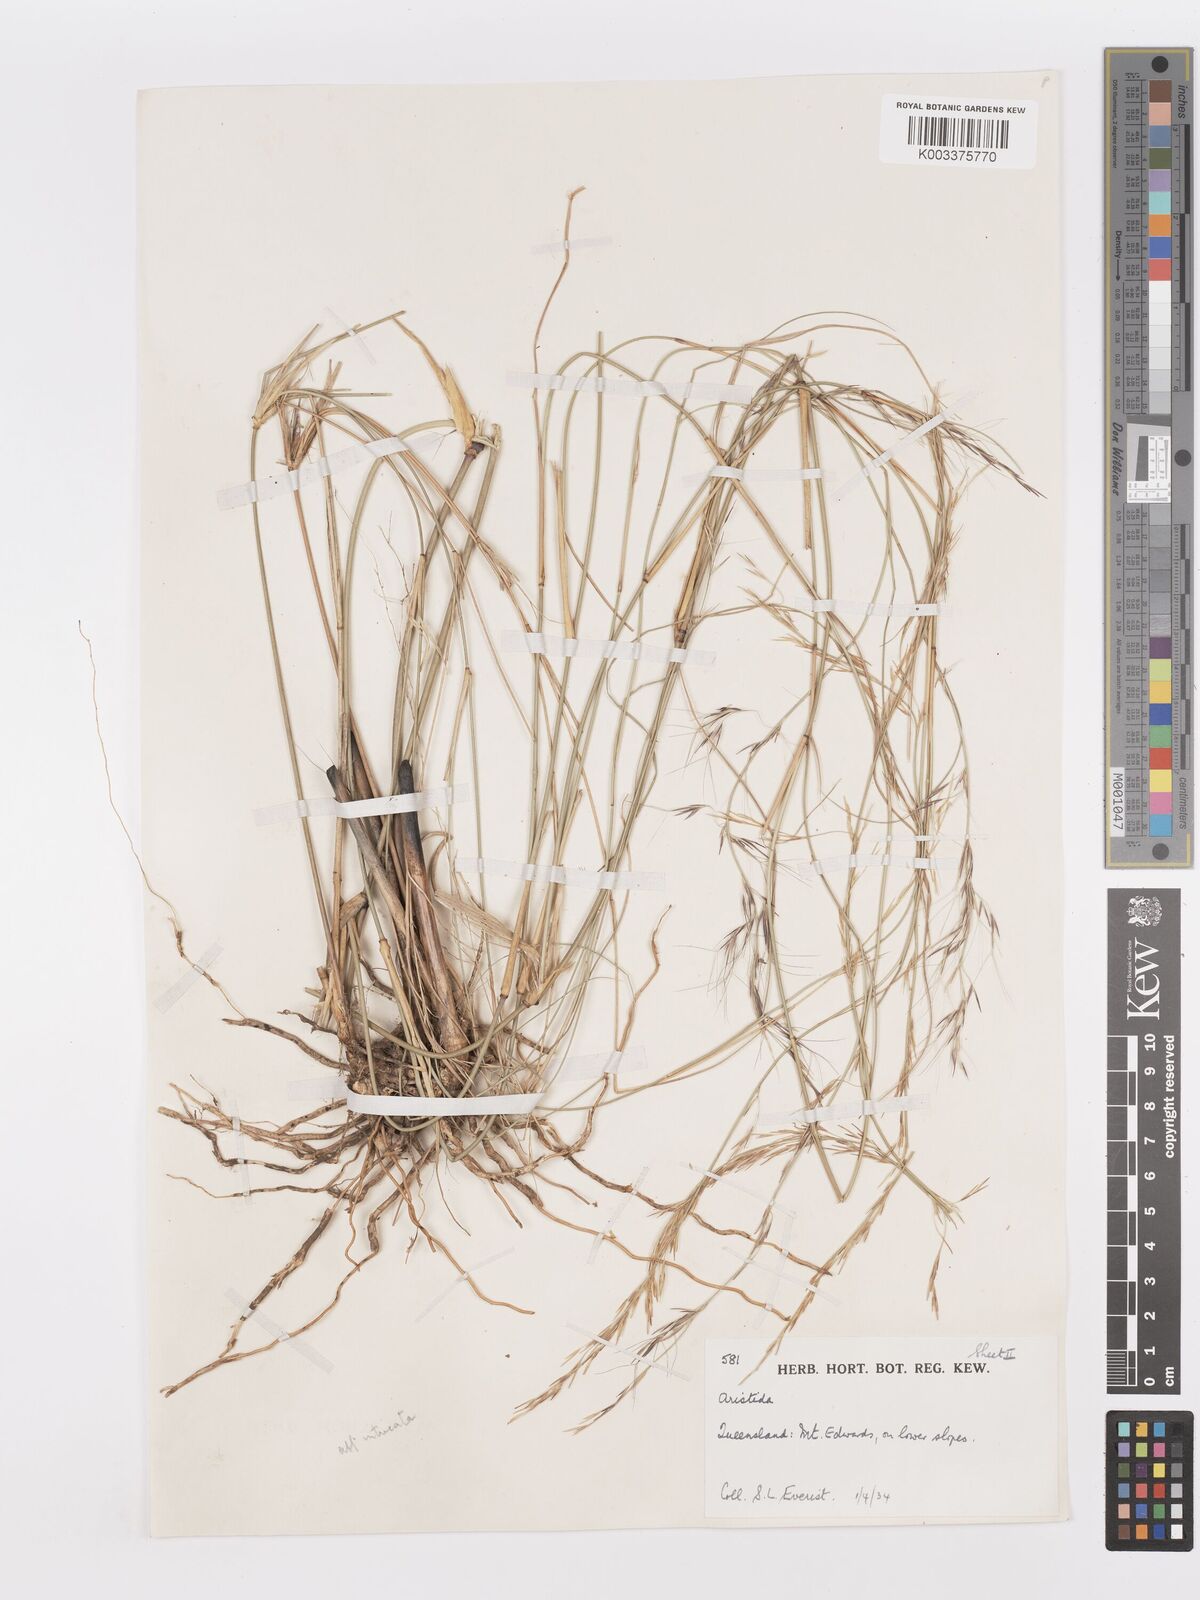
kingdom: Plantae
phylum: Tracheophyta
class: Liliopsida
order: Poales
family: Poaceae
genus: Aristida
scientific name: Aristida
